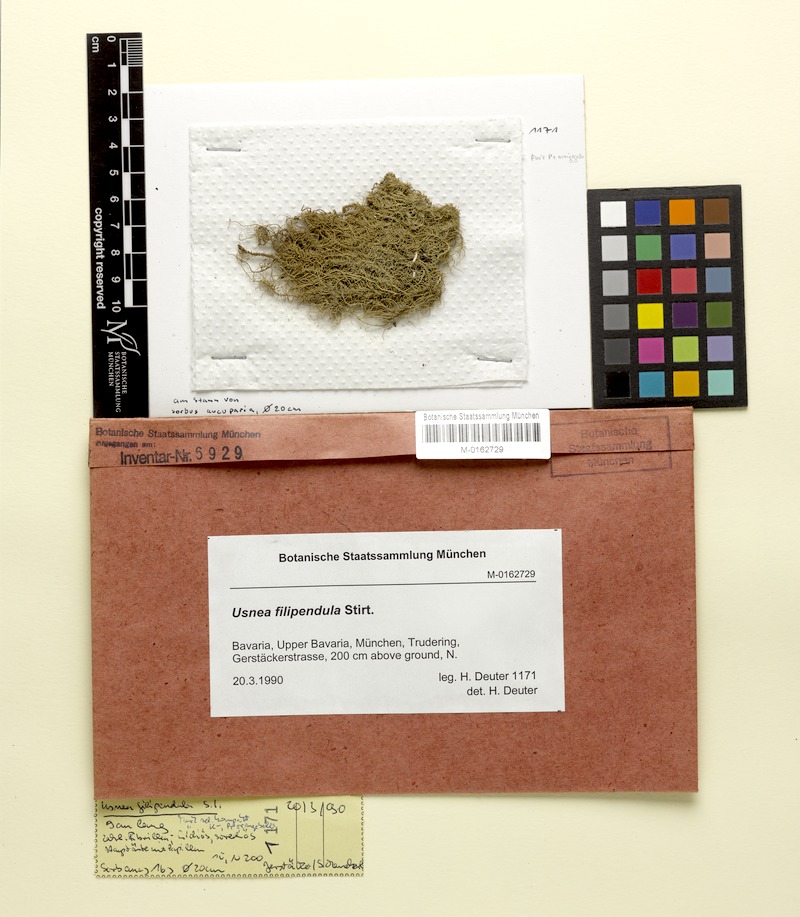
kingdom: Plantae
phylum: Tracheophyta
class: Magnoliopsida
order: Rosales
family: Rosaceae
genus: Sorbus
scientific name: Sorbus aucuparia
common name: Rowan
